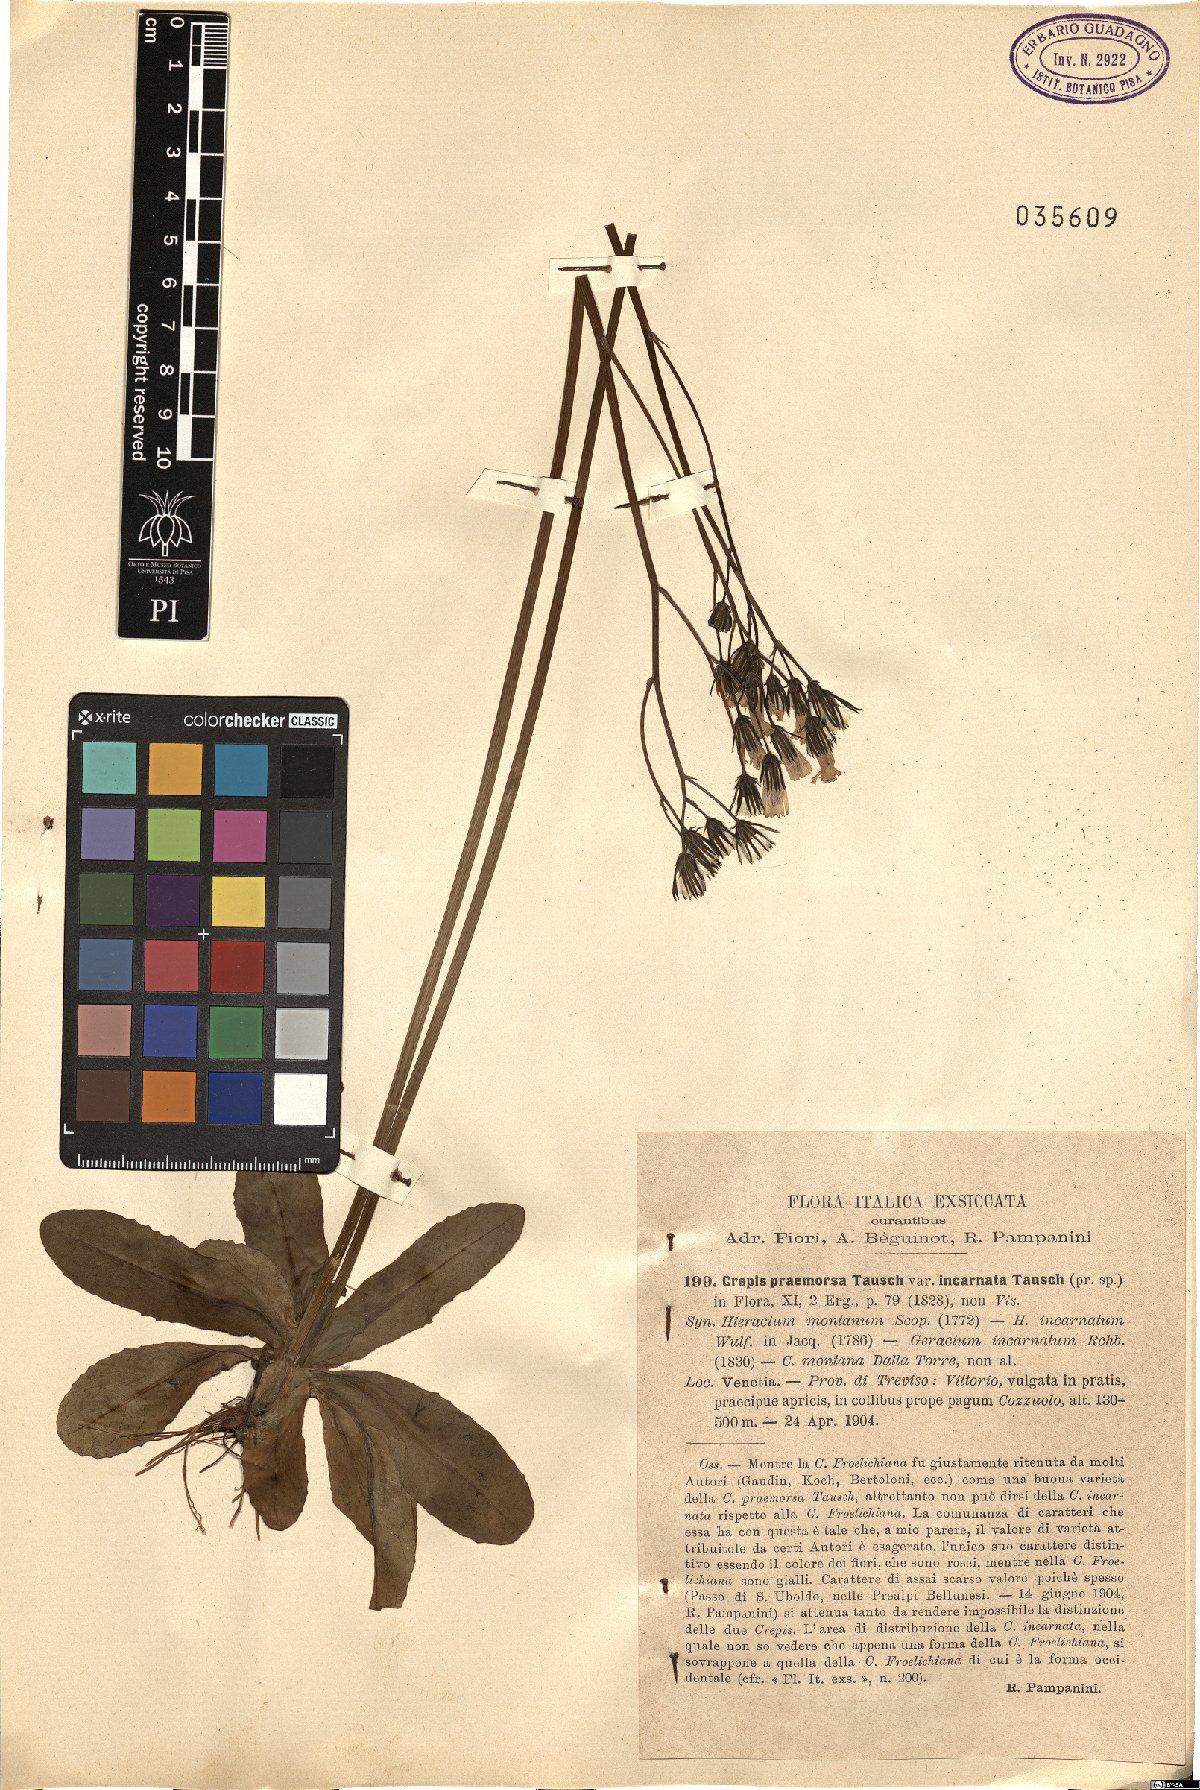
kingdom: Plantae
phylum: Tracheophyta
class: Magnoliopsida
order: Asterales
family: Asteraceae
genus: Crepis
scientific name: Crepis praemorsa
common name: Leafless hawk's-beard
